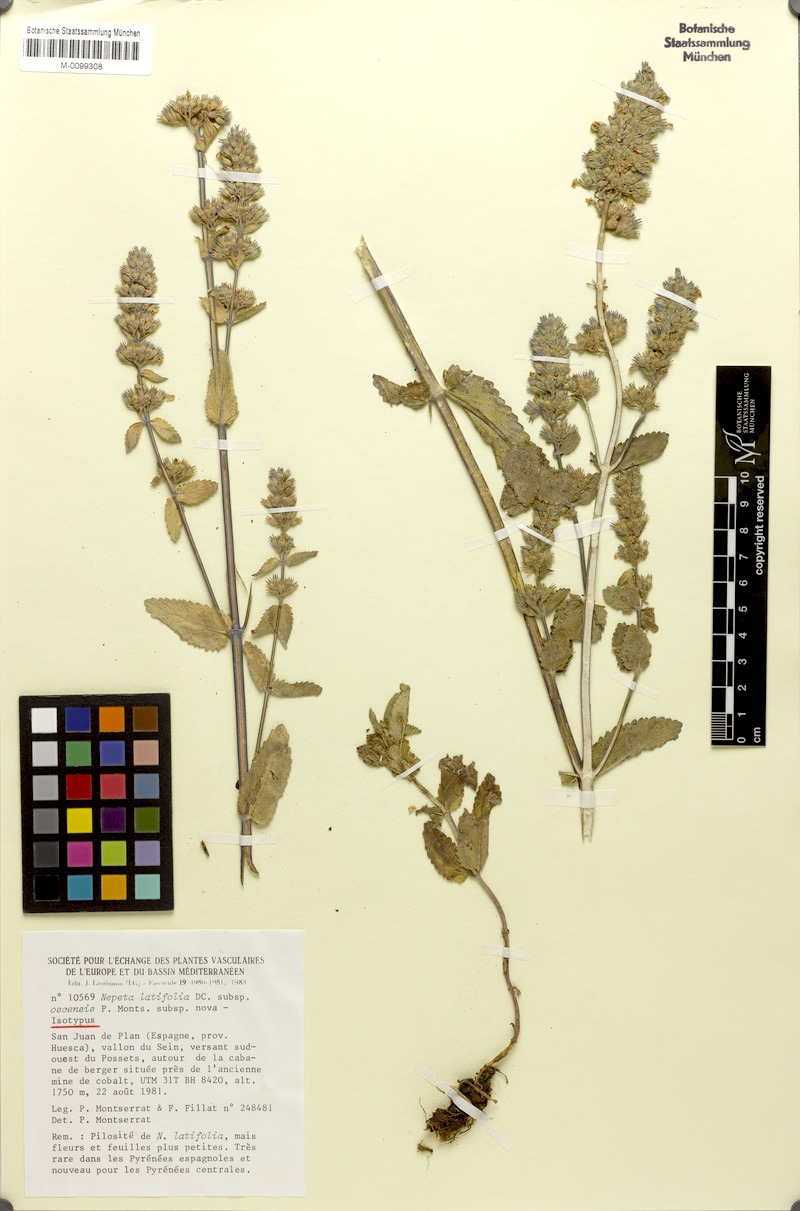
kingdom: Plantae
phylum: Tracheophyta
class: Magnoliopsida
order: Lamiales
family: Lamiaceae
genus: Nepeta
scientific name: Nepeta latifolia
